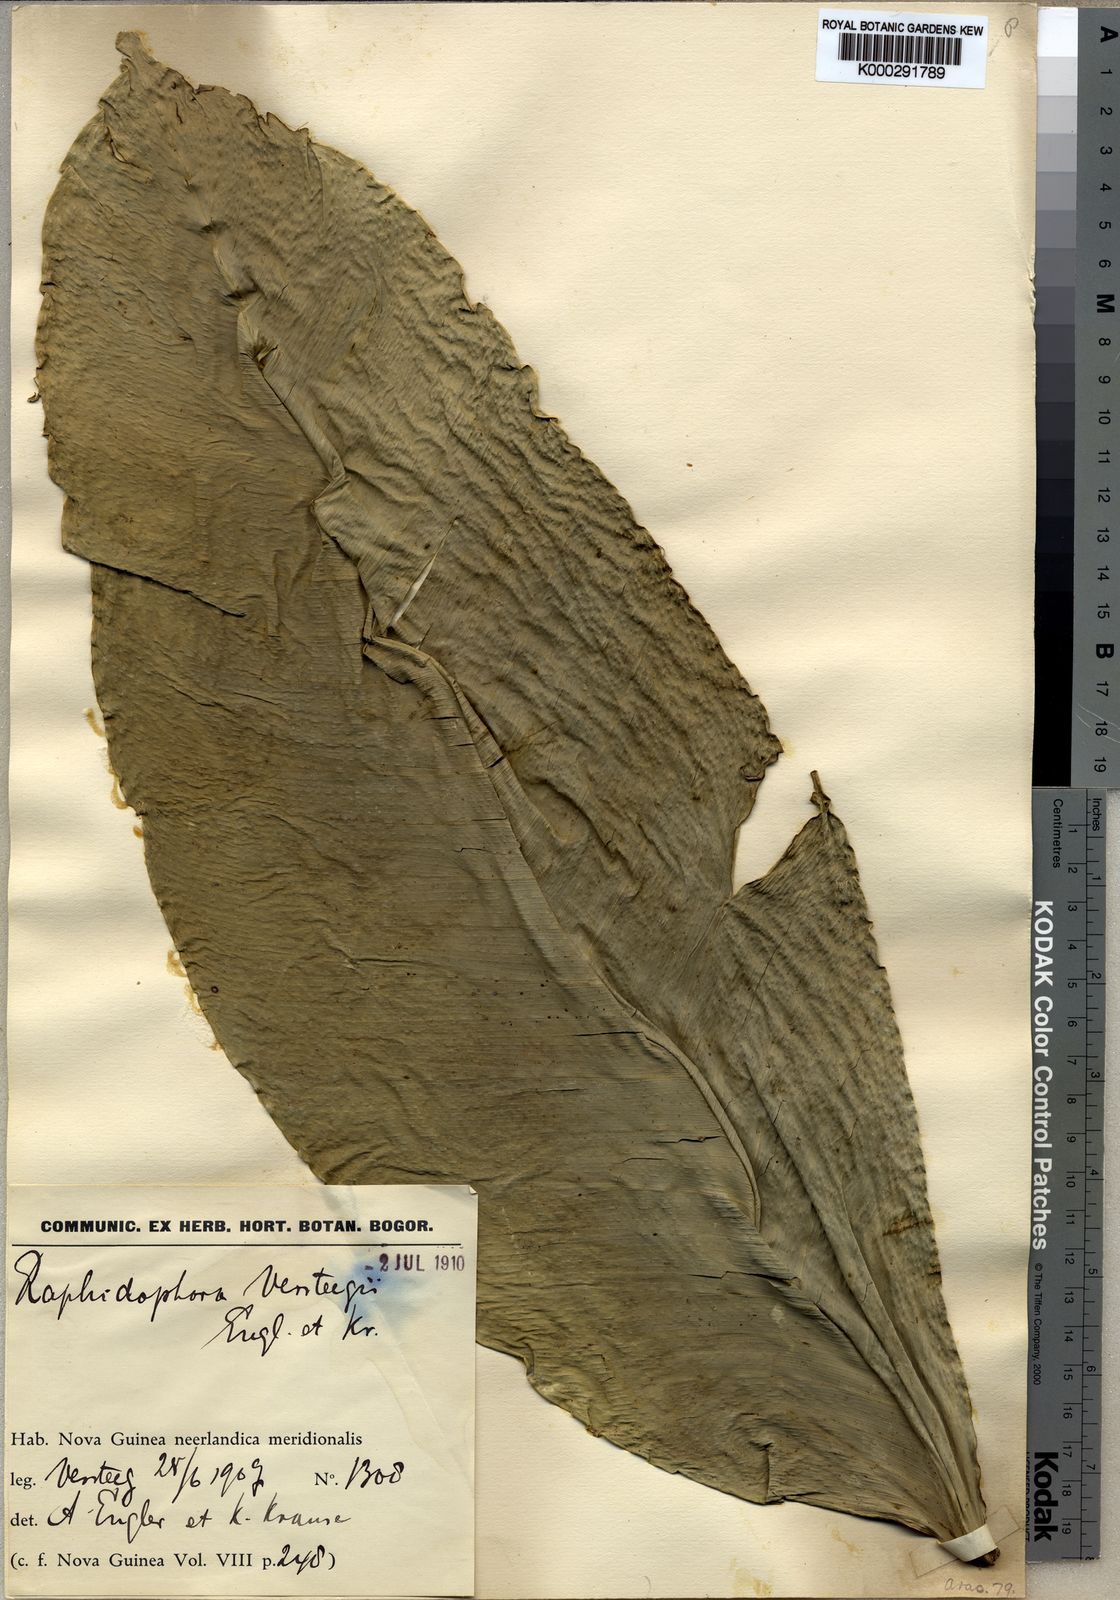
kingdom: Plantae
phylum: Tracheophyta
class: Liliopsida
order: Alismatales
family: Araceae
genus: Rhaphidophora
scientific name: Rhaphidophora versteegii
